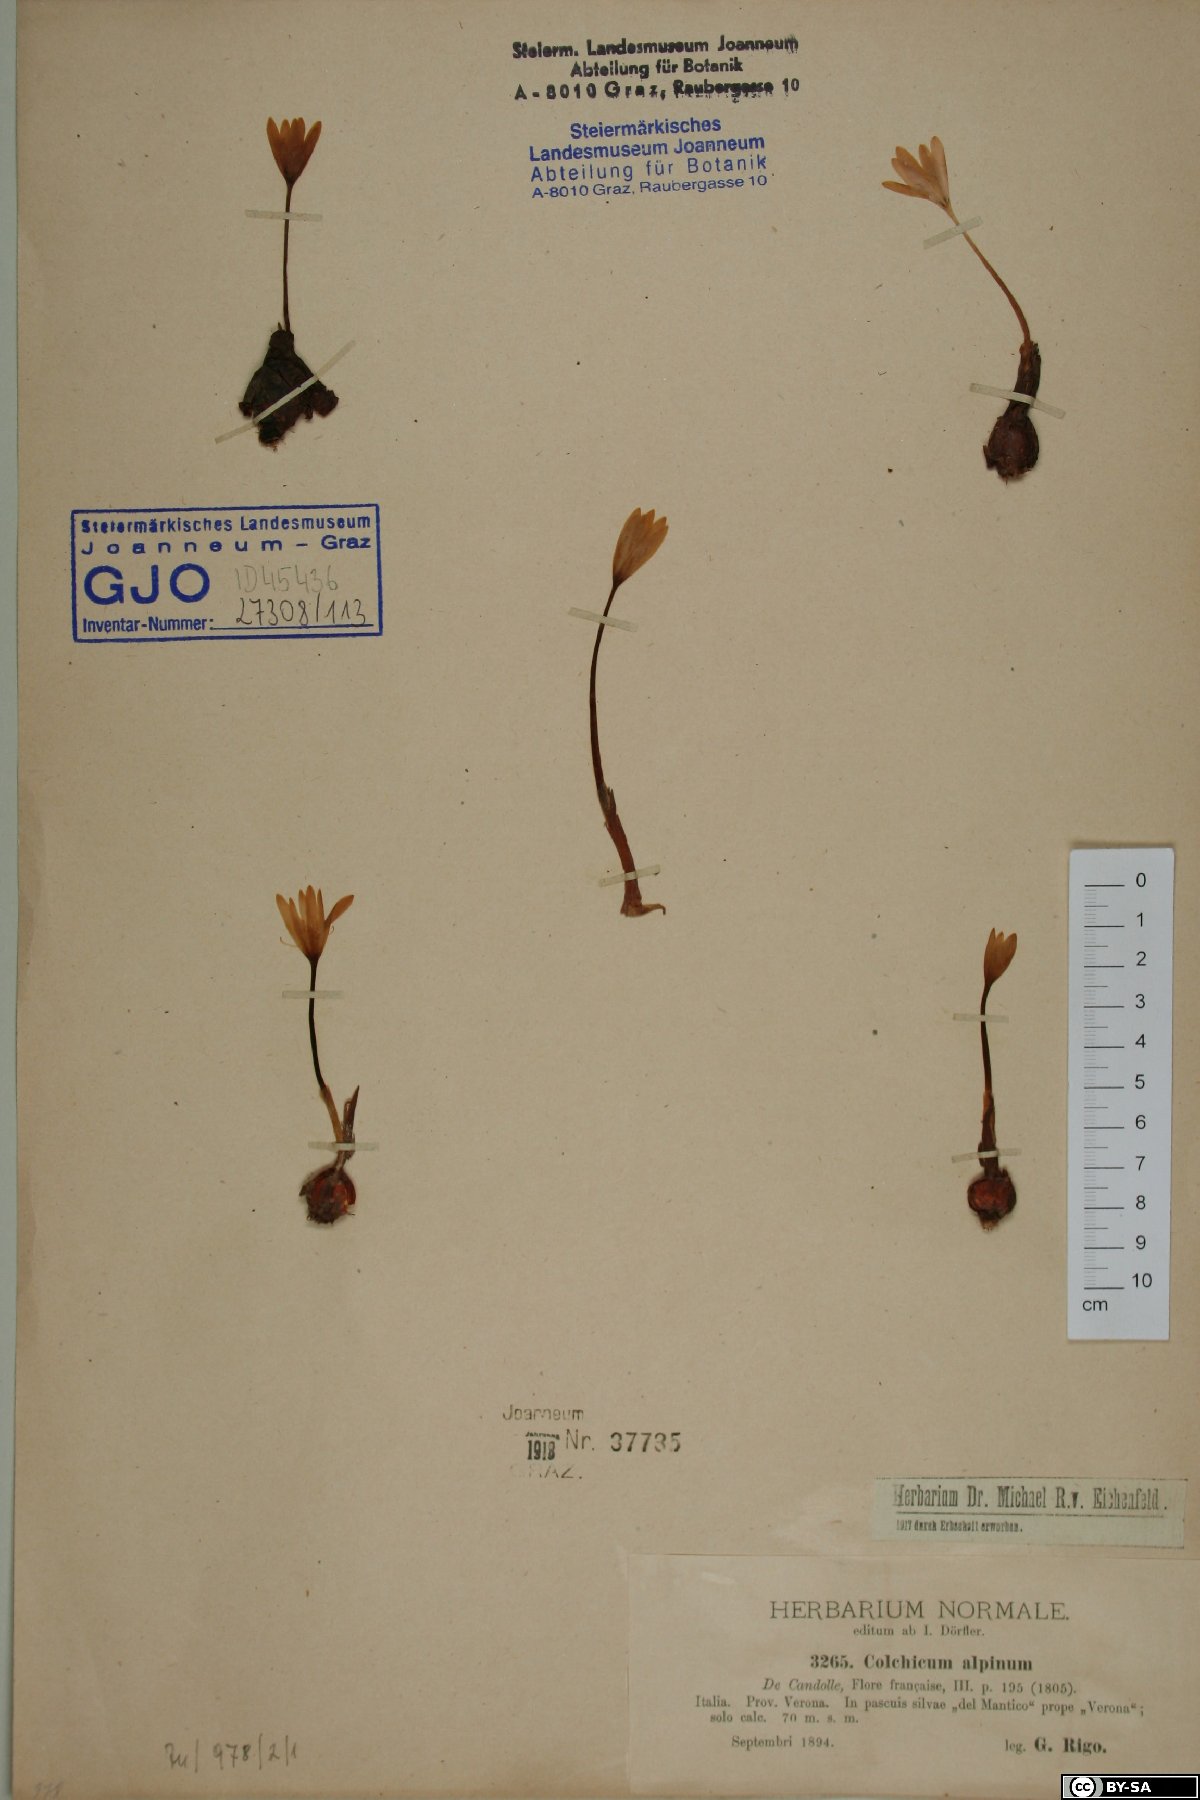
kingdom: Plantae
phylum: Tracheophyta
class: Liliopsida
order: Liliales
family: Colchicaceae
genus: Colchicum
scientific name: Colchicum alpinum
